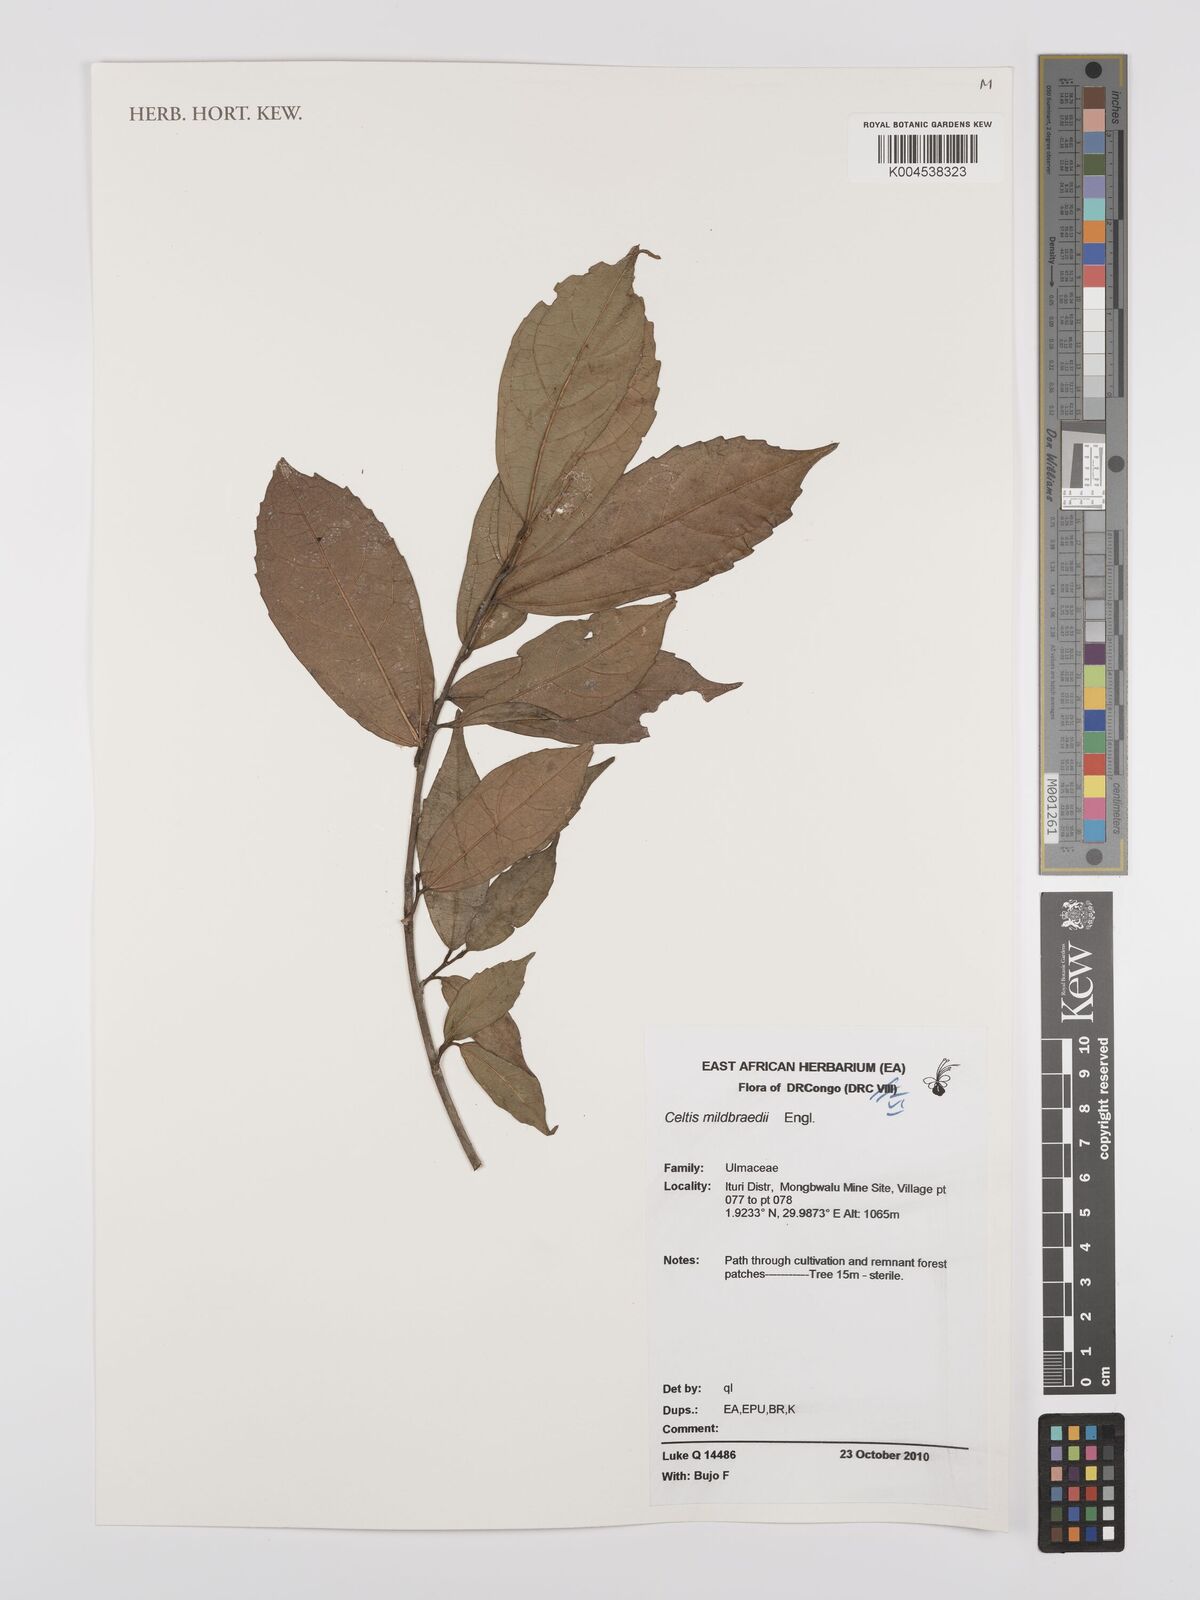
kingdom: Plantae
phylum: Tracheophyta
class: Magnoliopsida
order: Rosales
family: Cannabaceae
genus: Celtis
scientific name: Celtis mildbraedii
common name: Red-fruited stinkwood
